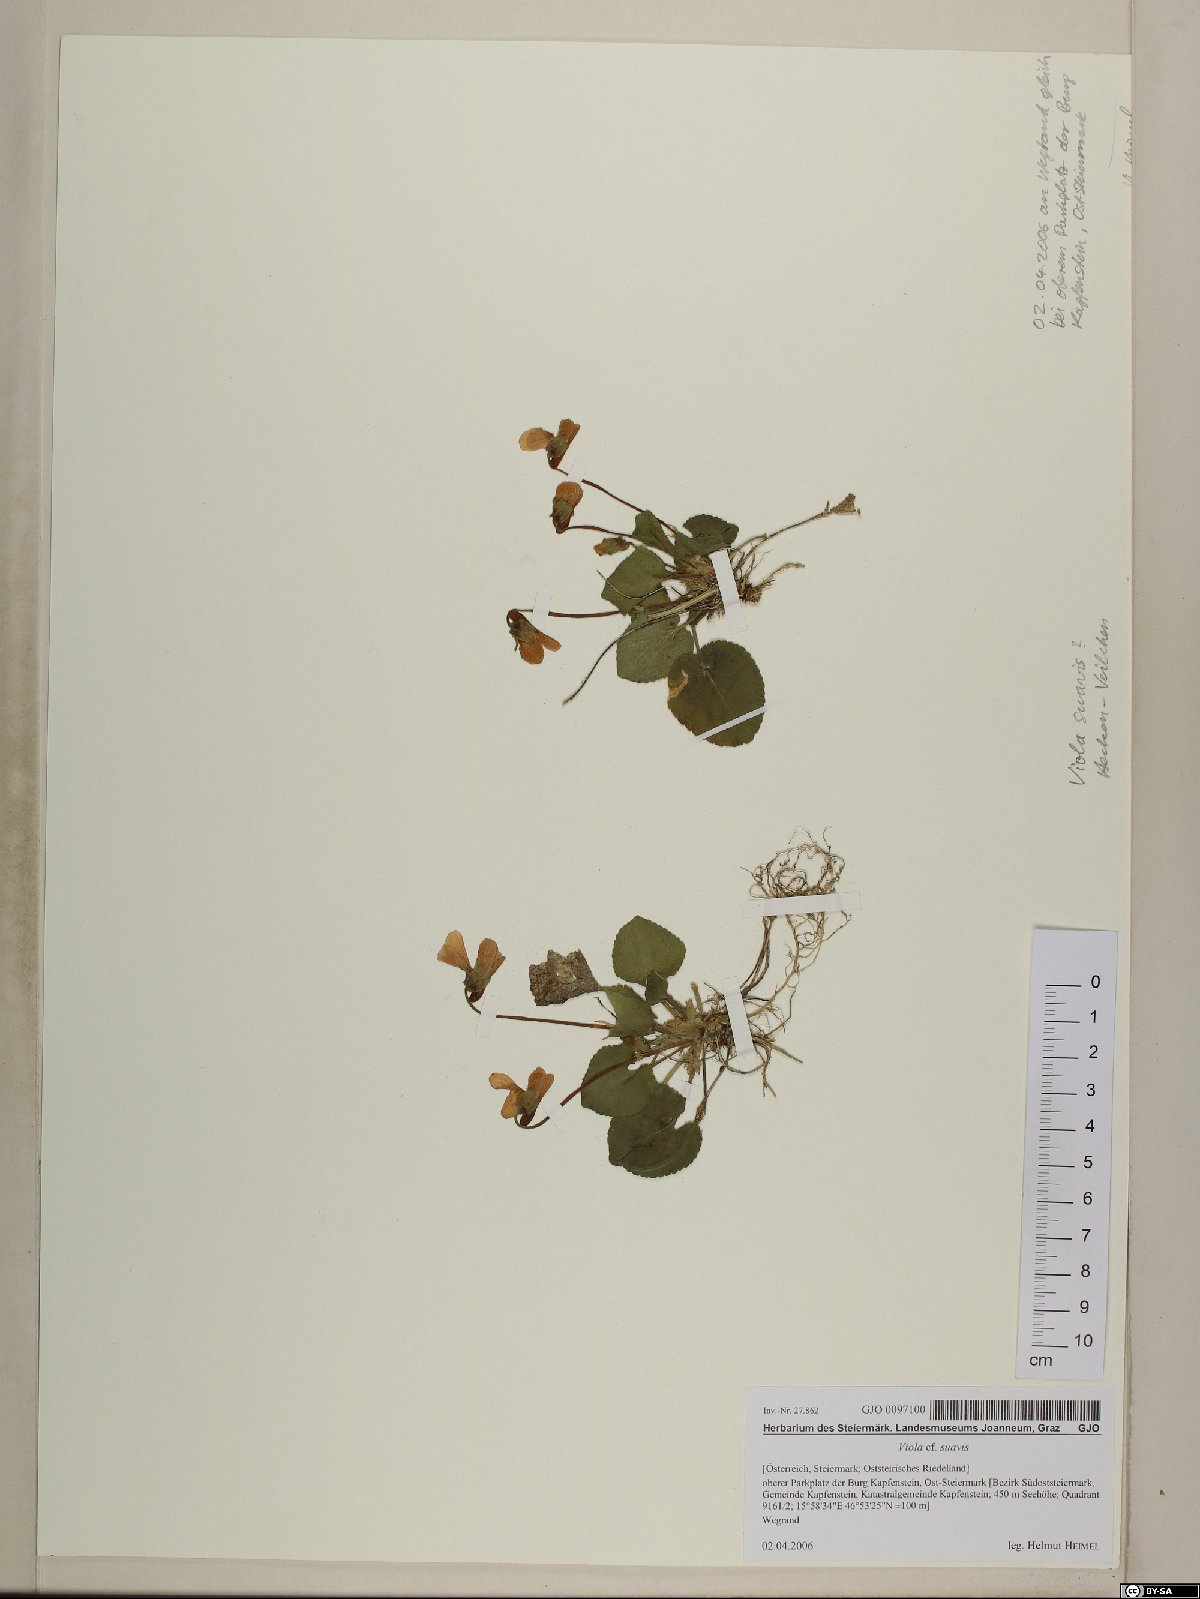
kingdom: Plantae
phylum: Tracheophyta
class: Magnoliopsida
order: Malpighiales
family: Violaceae
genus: Viola
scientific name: Viola suavis
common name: Russian violet
